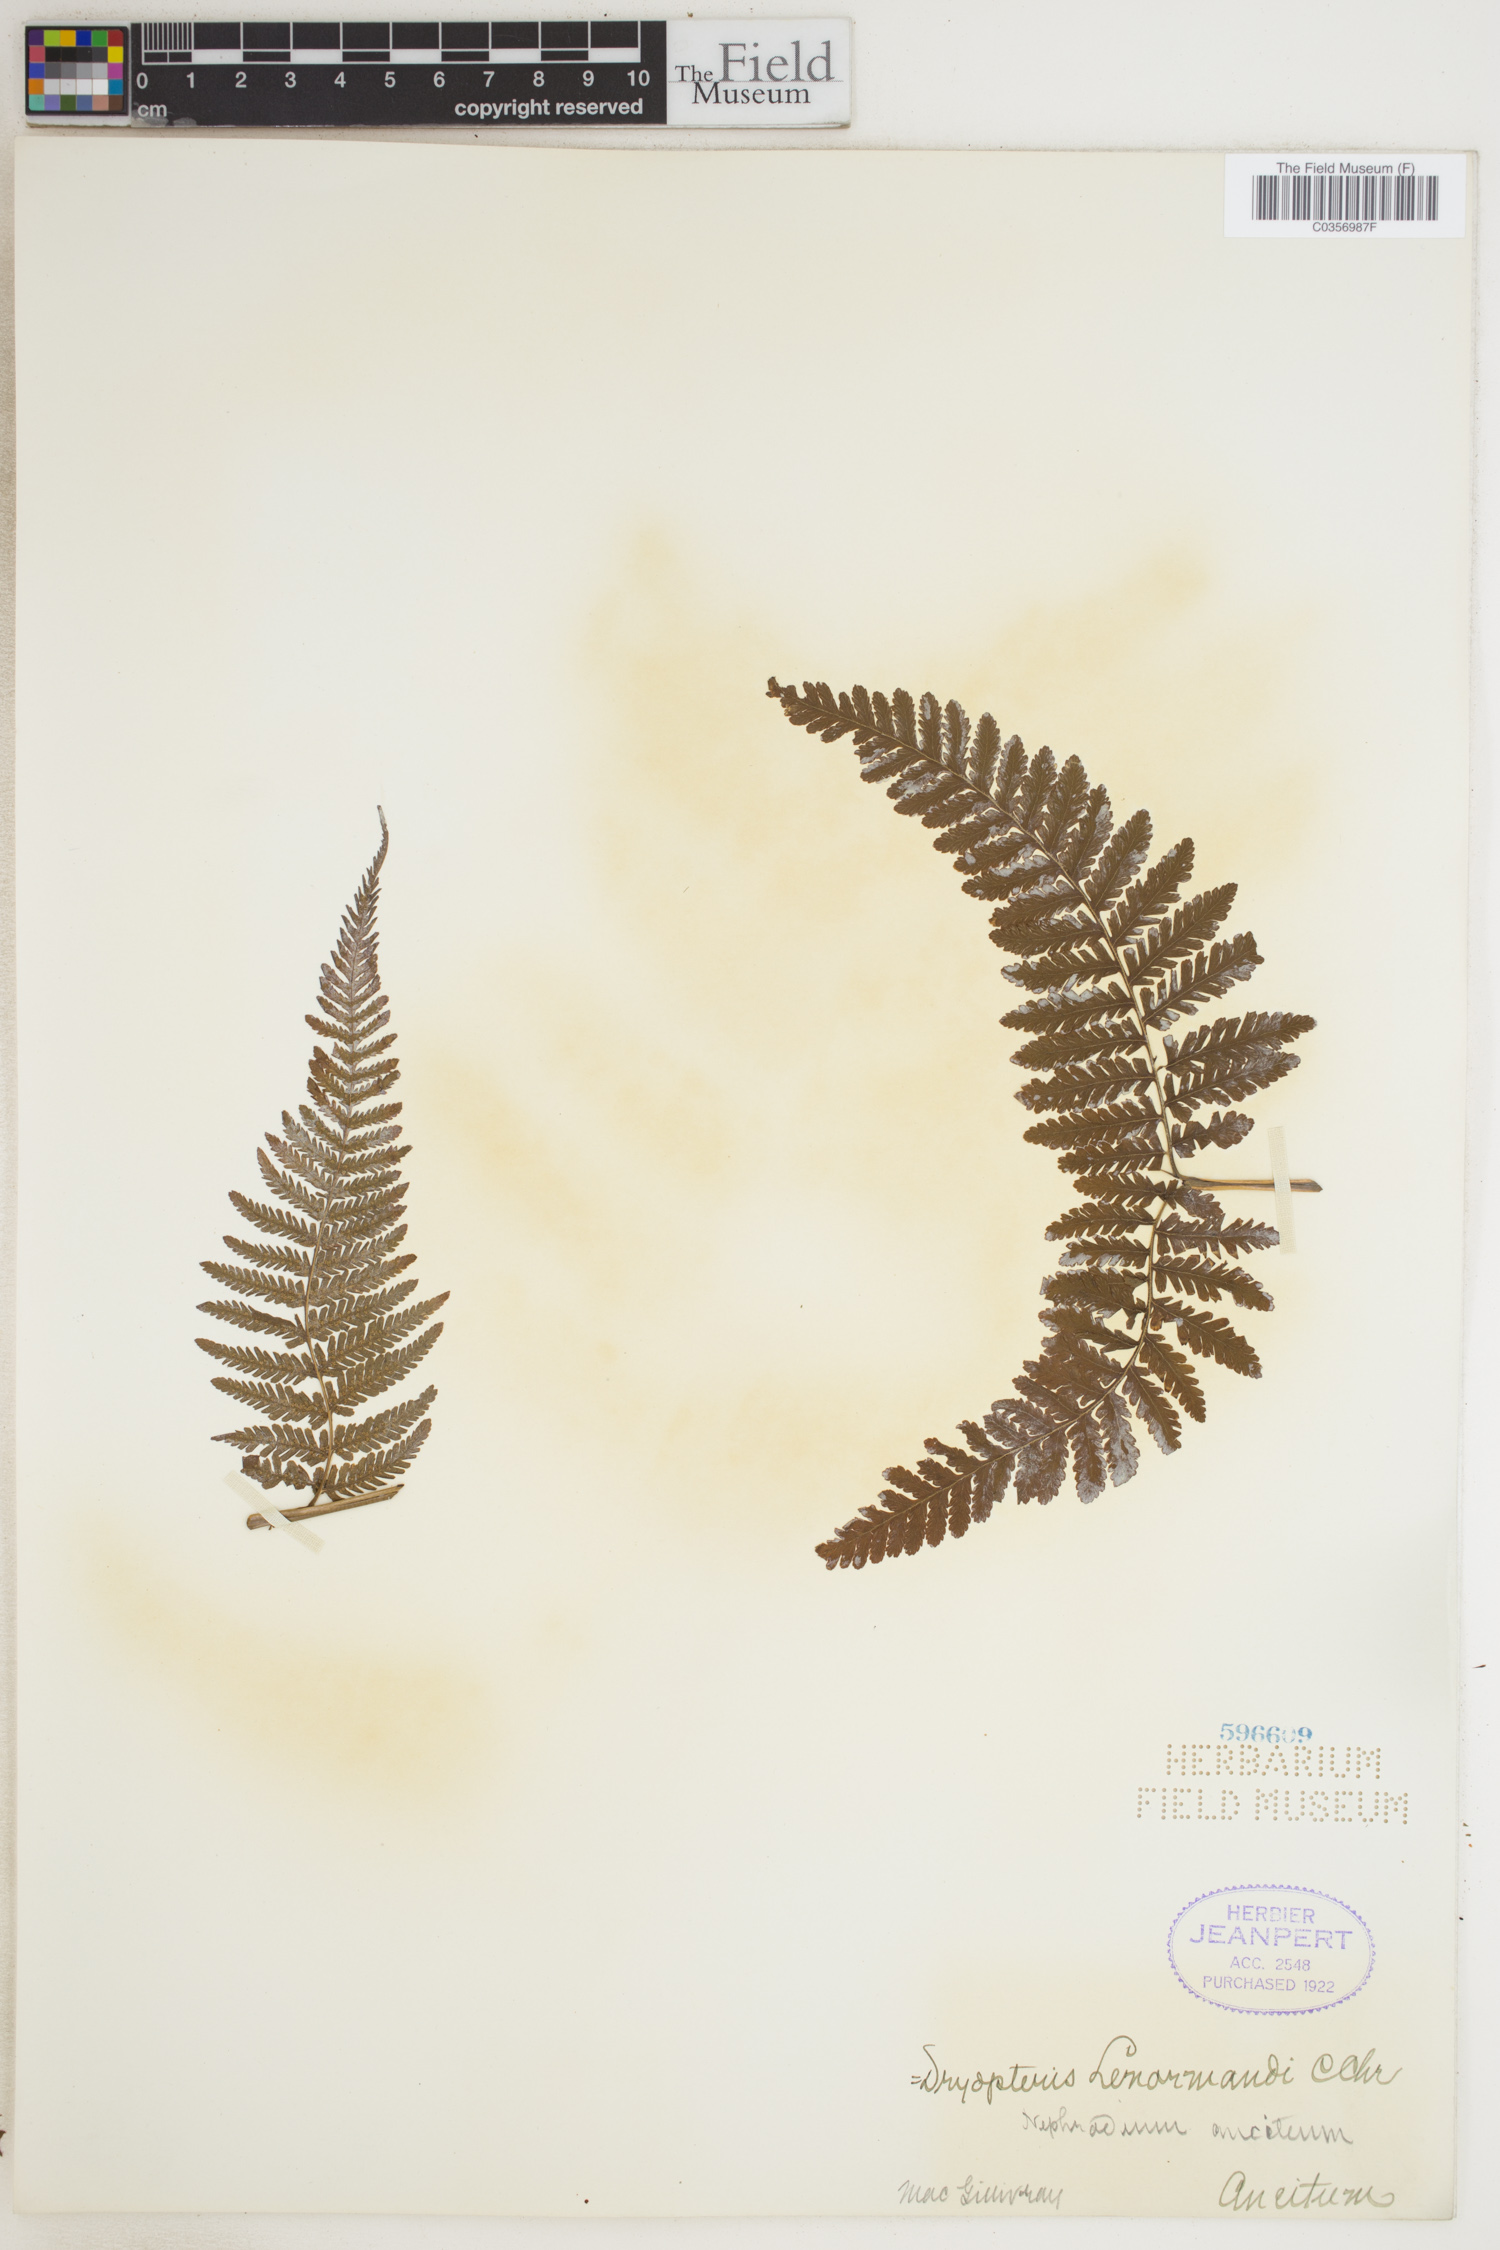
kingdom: Plantae
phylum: Tracheophyta
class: Polypodiopsida
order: Polypodiales
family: Thelypteridaceae
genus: Cyclosorus
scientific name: Cyclosorus interruptus
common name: Neke fern
